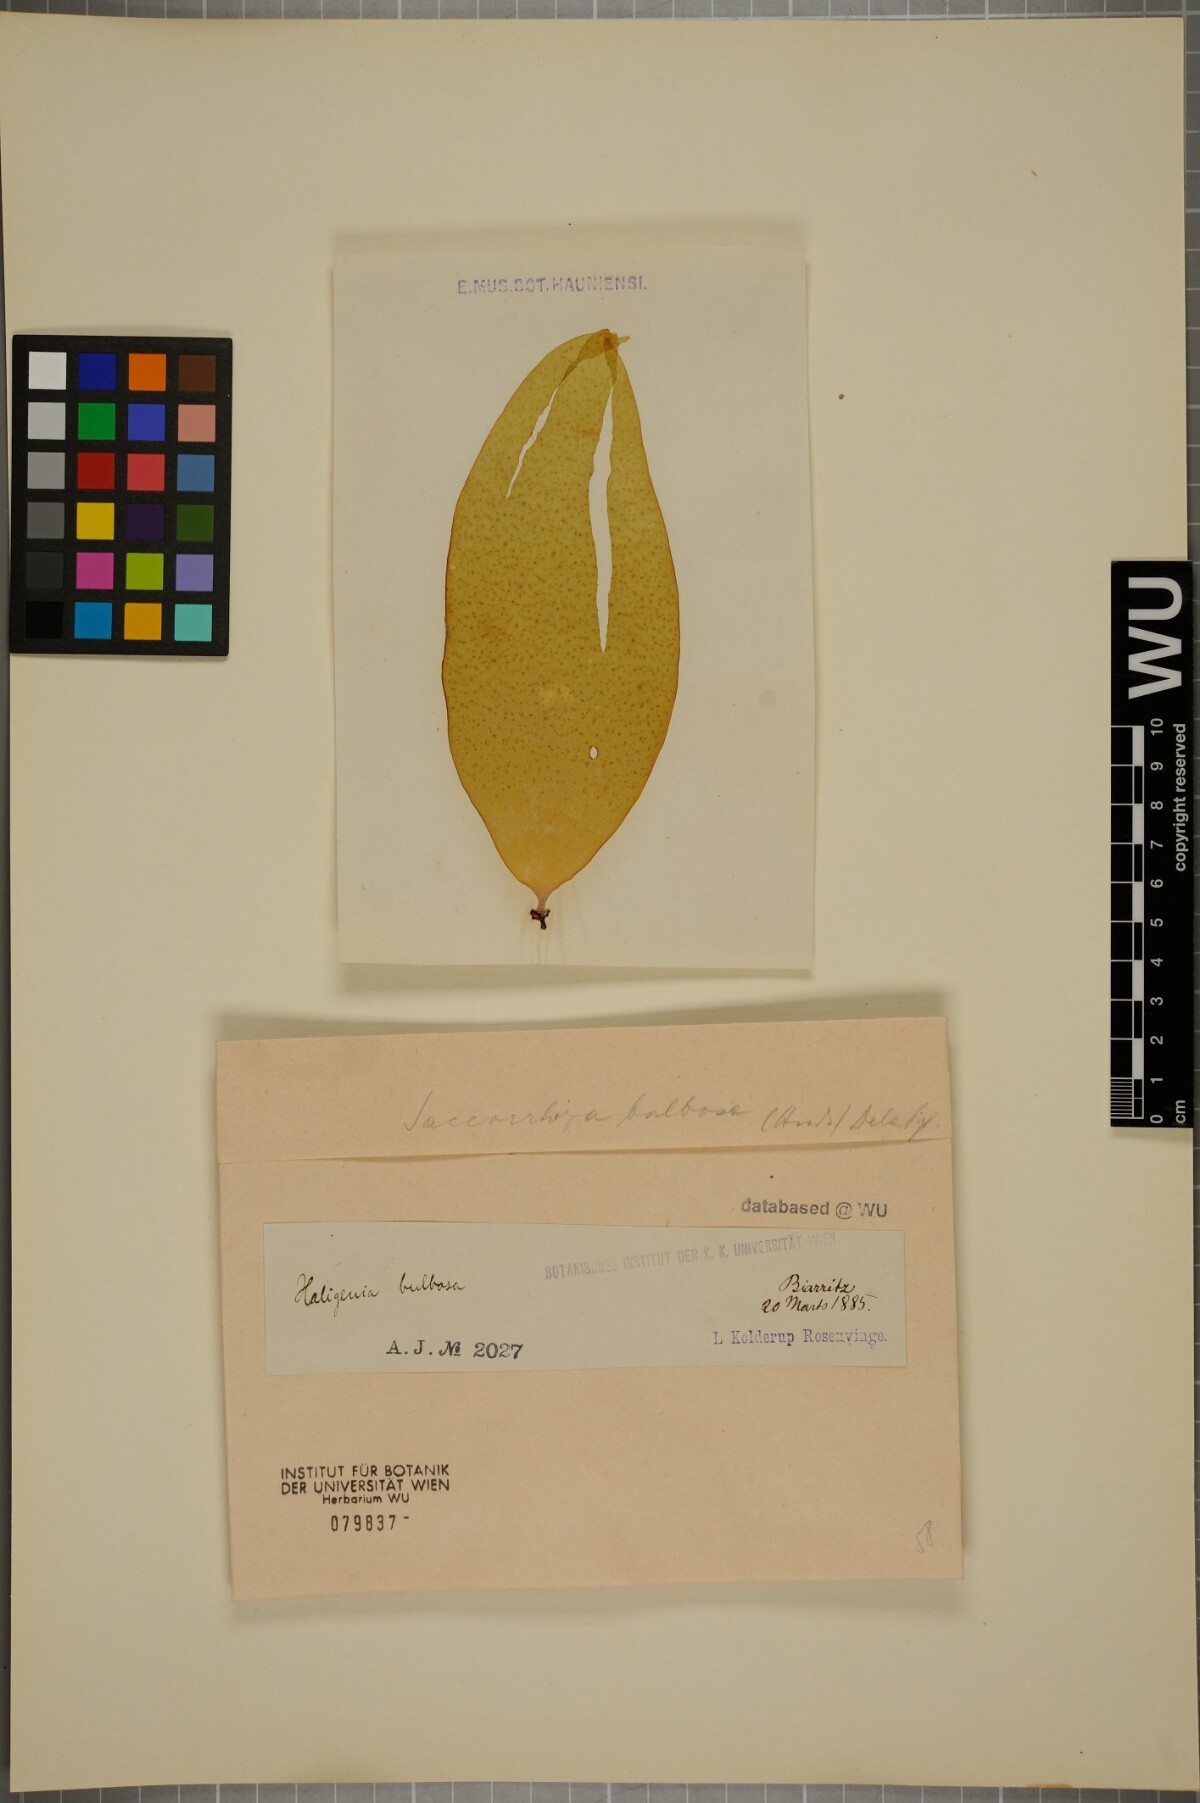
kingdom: Chromista
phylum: Ochrophyta
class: Phaeophyceae
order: Tilopteridales
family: Phyllariaceae
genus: Saccorhiza
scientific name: Saccorhiza polyschides
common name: Furbelows
